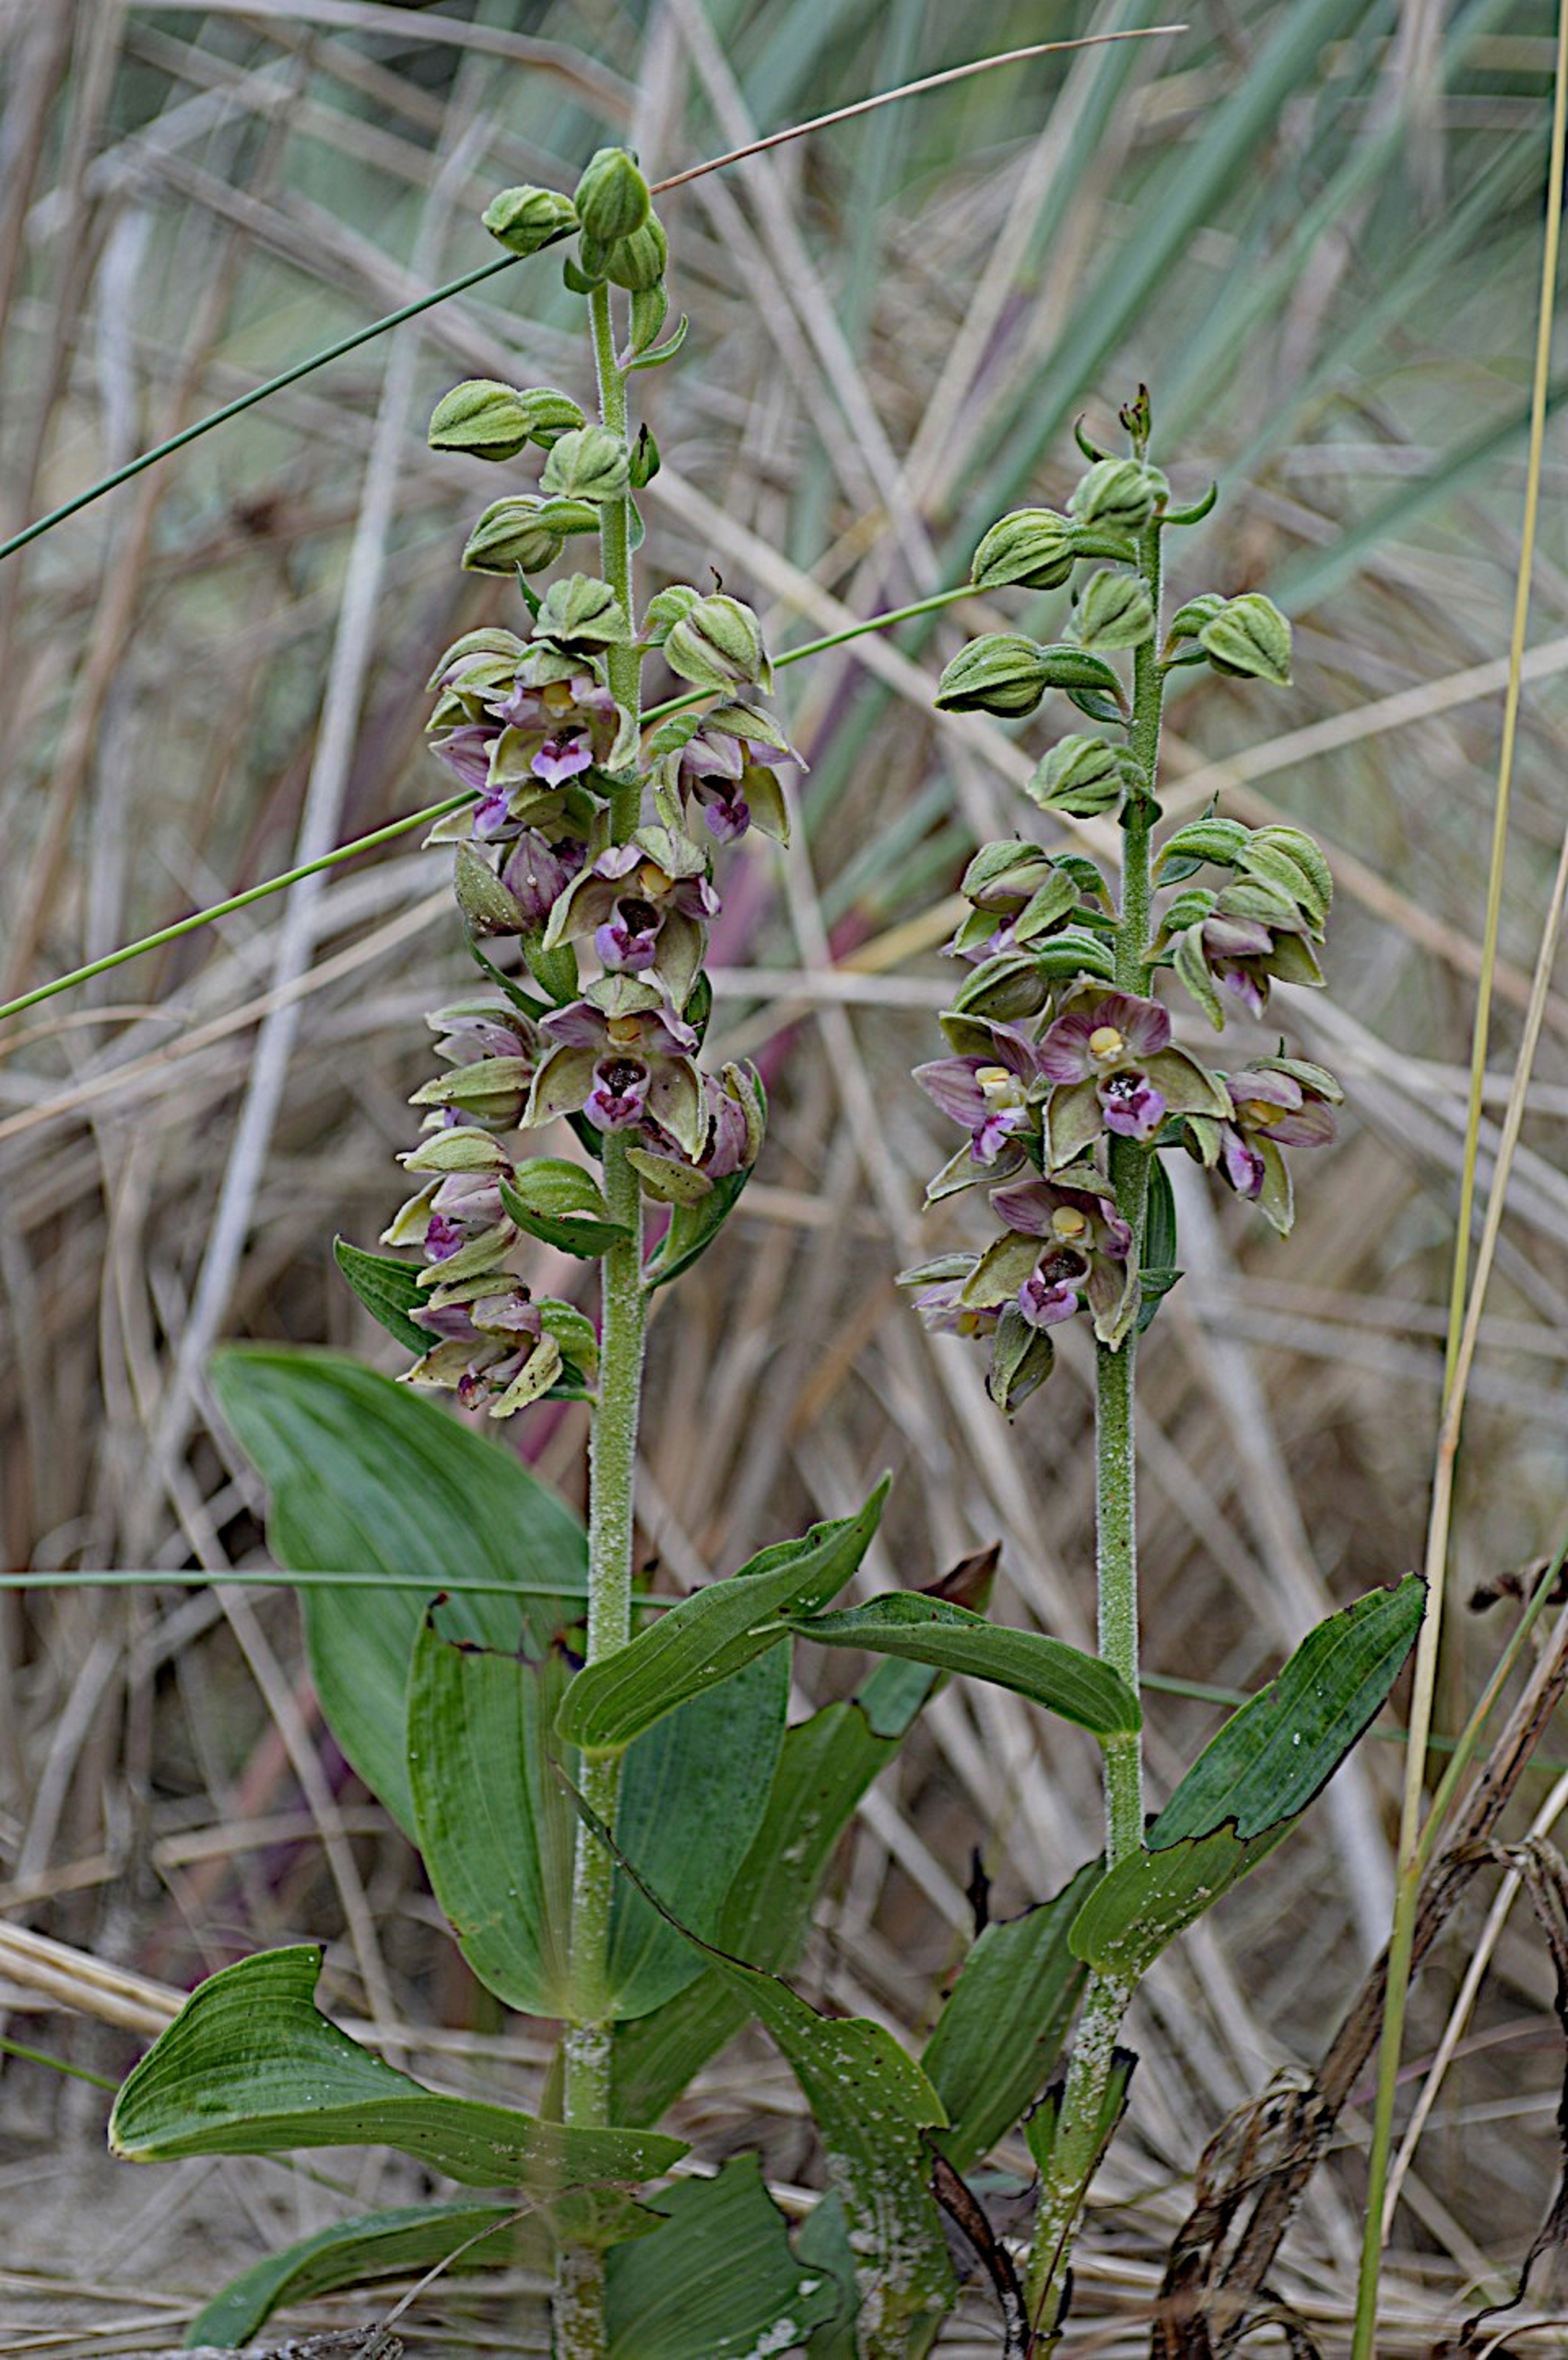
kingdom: Plantae
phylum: Tracheophyta
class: Liliopsida
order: Asparagales
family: Orchidaceae
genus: Epipactis
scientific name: Epipactis helleborine
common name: Hollandsk hullæbe
